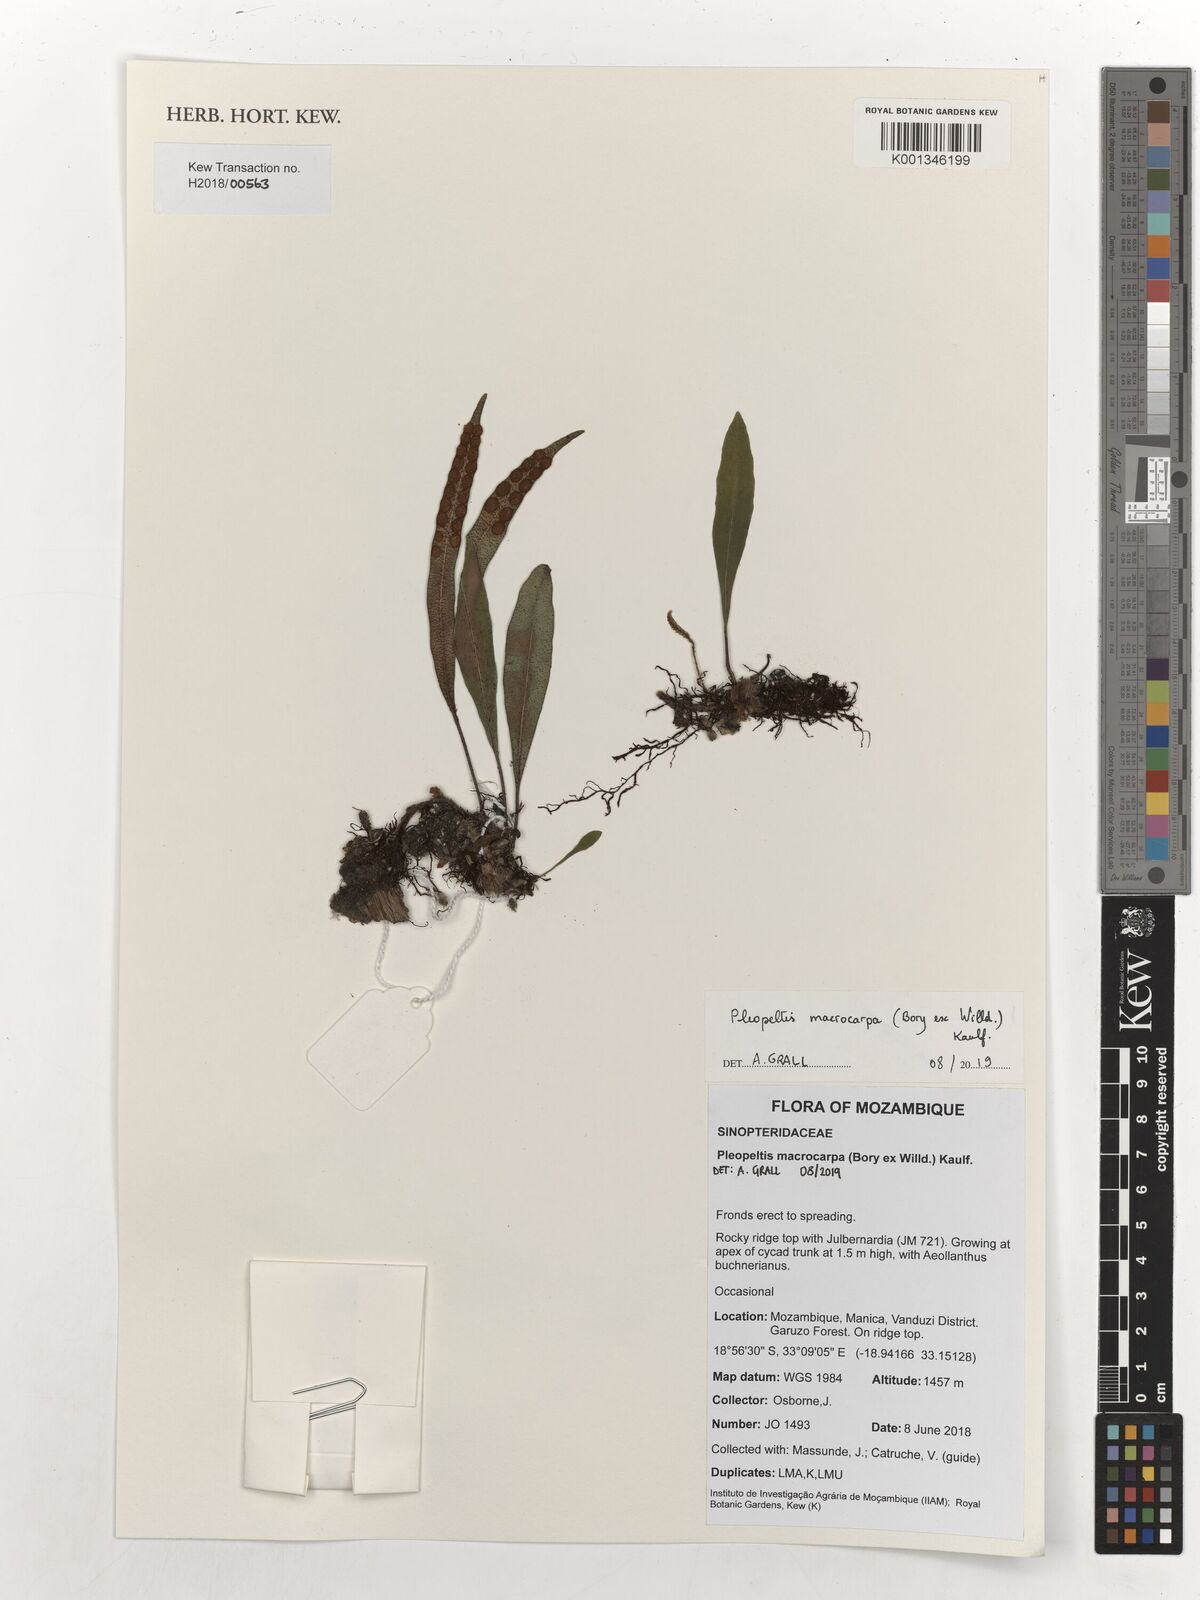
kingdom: Plantae
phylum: Tracheophyta
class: Polypodiopsida
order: Polypodiales
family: Polypodiaceae
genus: Pleopeltis
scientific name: Pleopeltis macrocarpa
